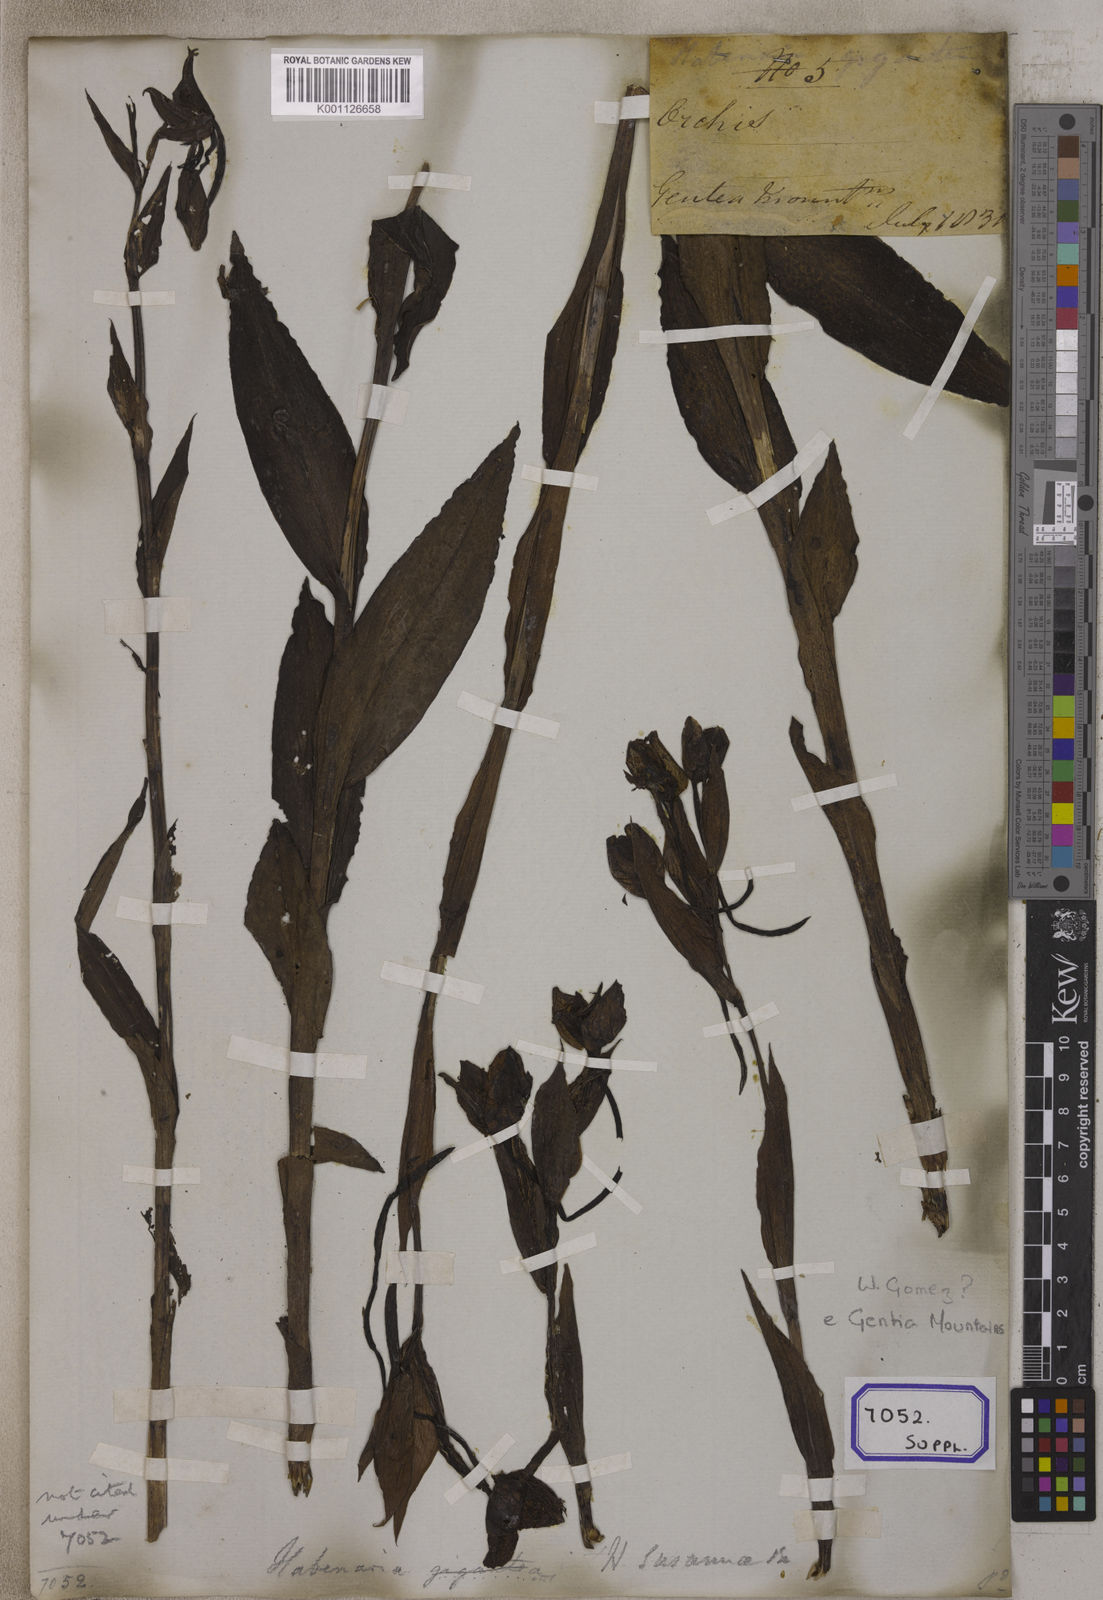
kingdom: Plantae
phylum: Tracheophyta
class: Liliopsida
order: Asparagales
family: Orchidaceae
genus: Platanthera
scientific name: Platanthera
